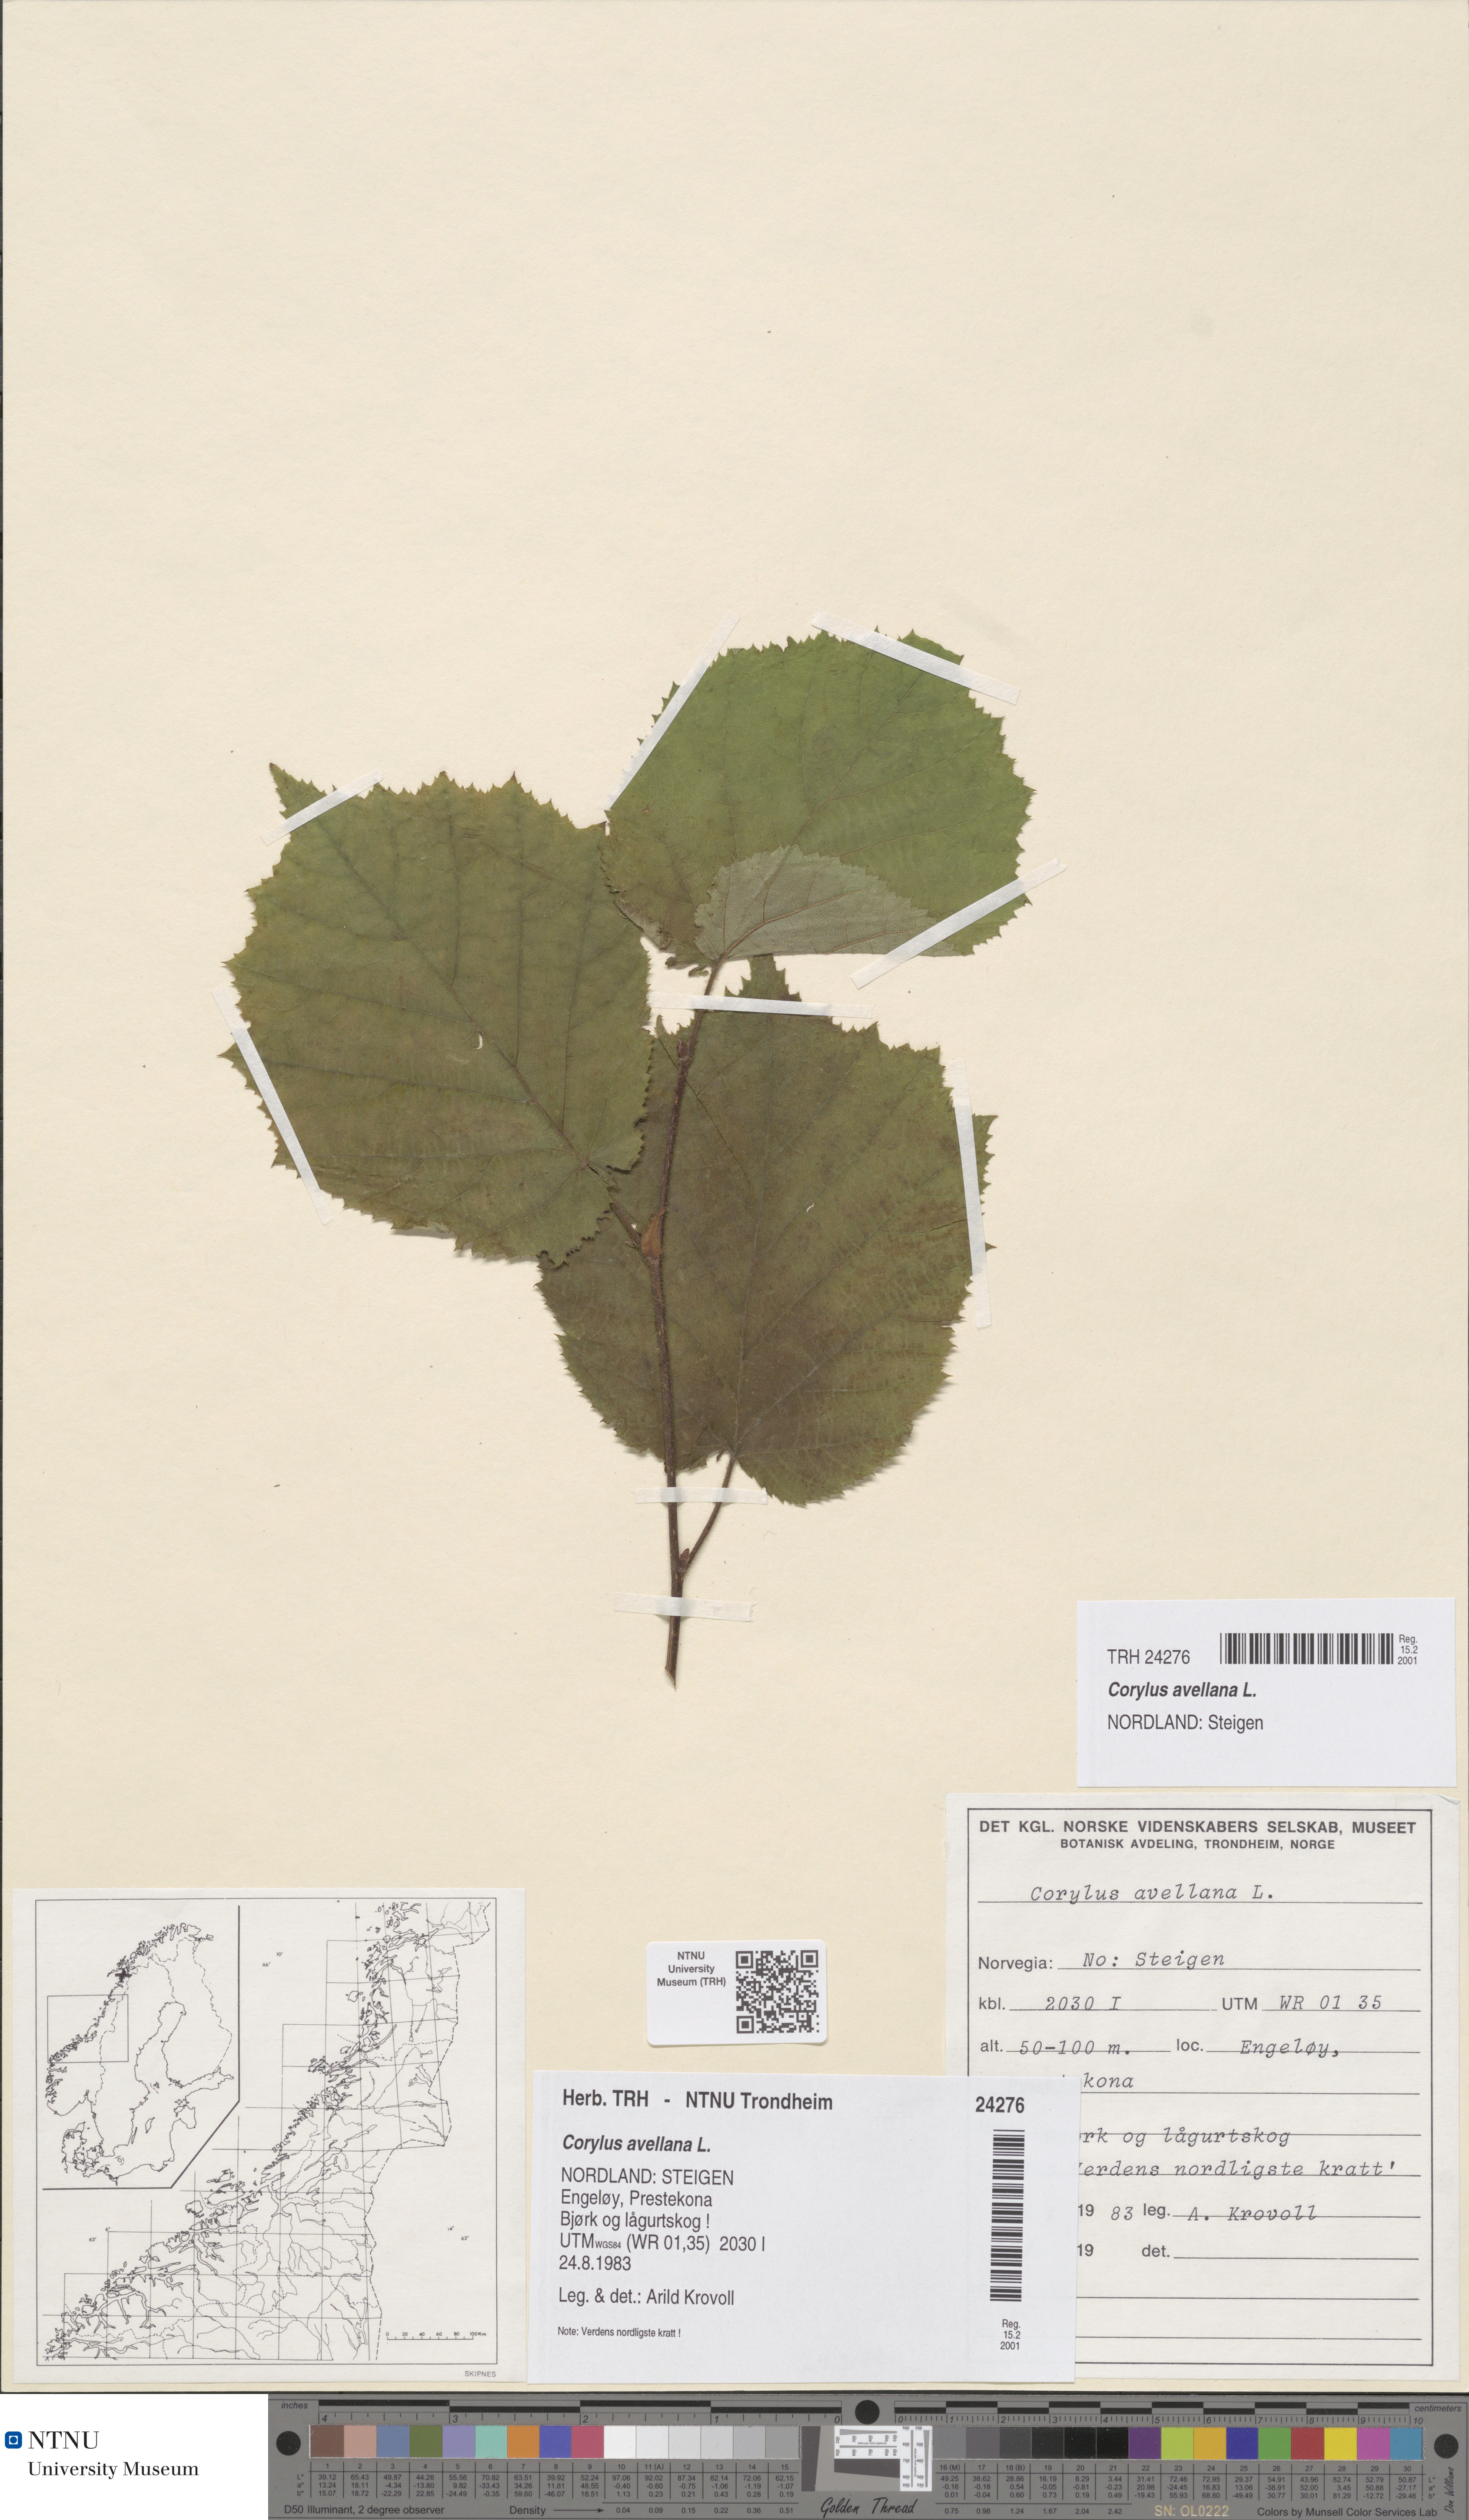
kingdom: Plantae
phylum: Tracheophyta
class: Magnoliopsida
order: Fagales
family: Betulaceae
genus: Corylus
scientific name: Corylus avellana
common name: European hazel
